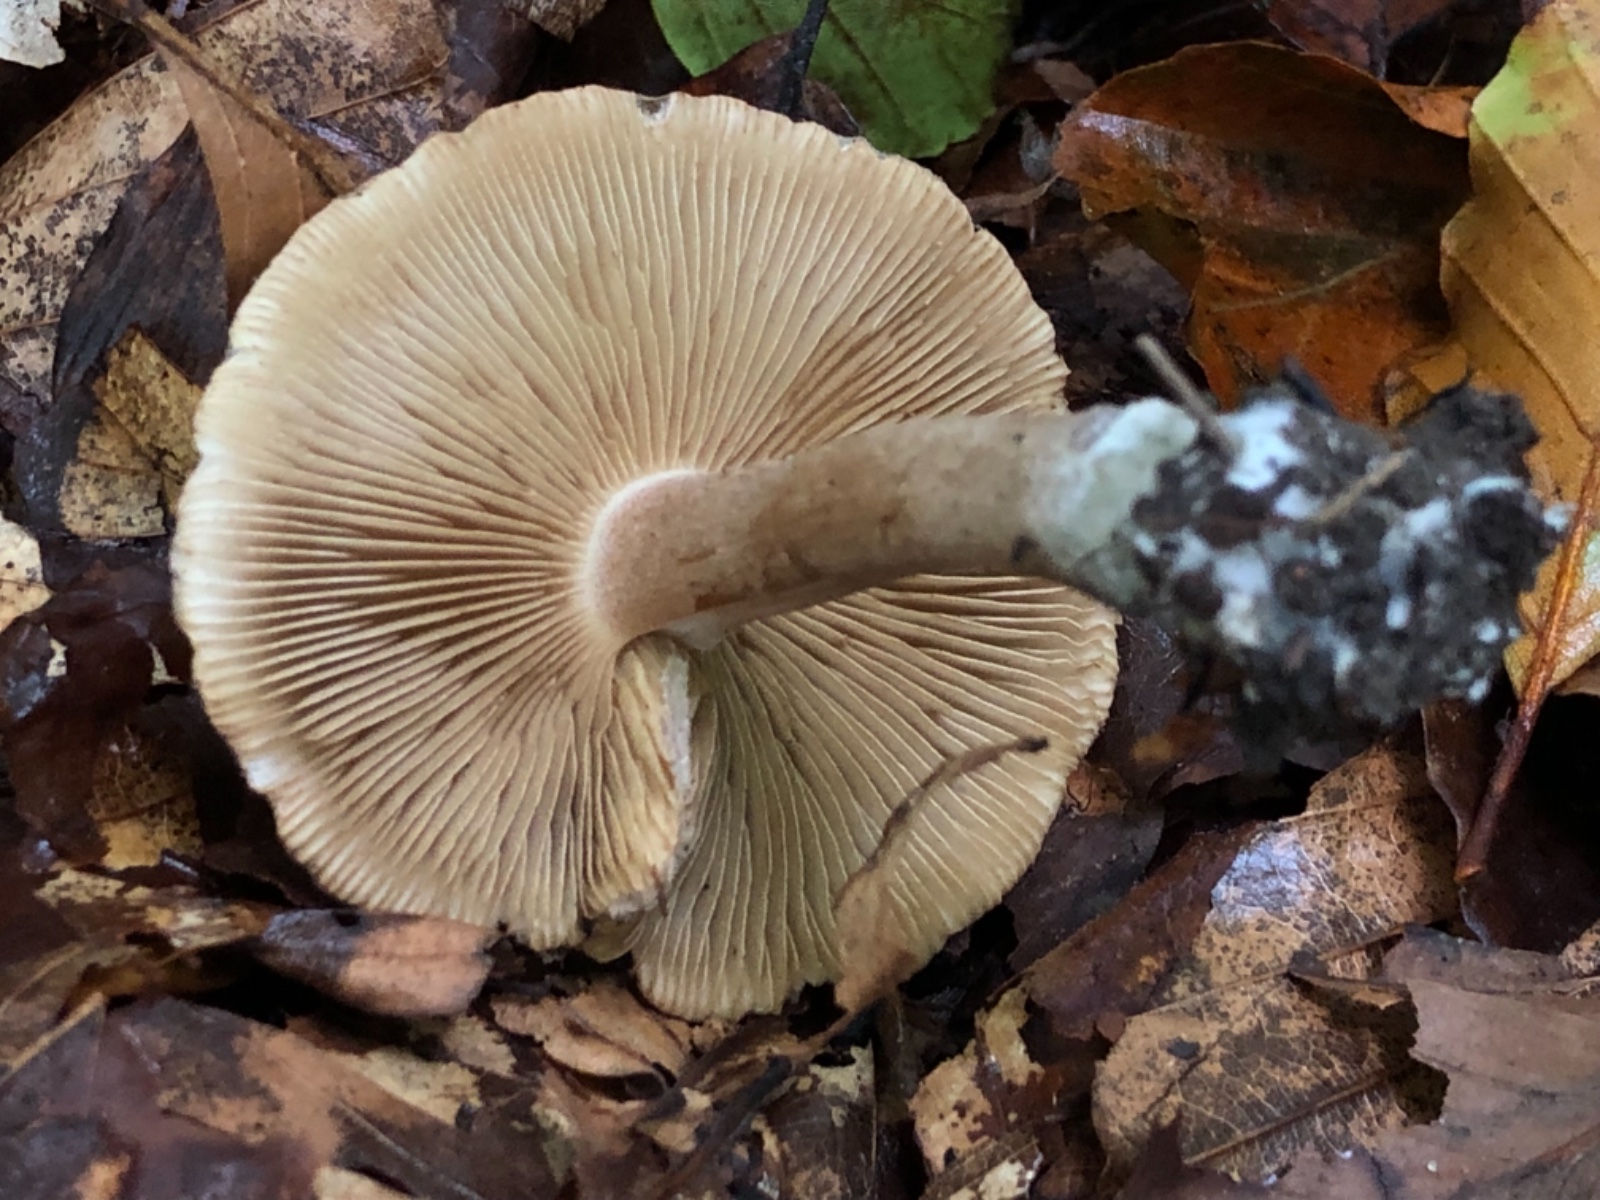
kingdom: Fungi
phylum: Basidiomycota
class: Agaricomycetes
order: Agaricales
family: Inocybaceae
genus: Inocybe
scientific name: Inocybe corydalina
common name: grønpuklet trævlhat
